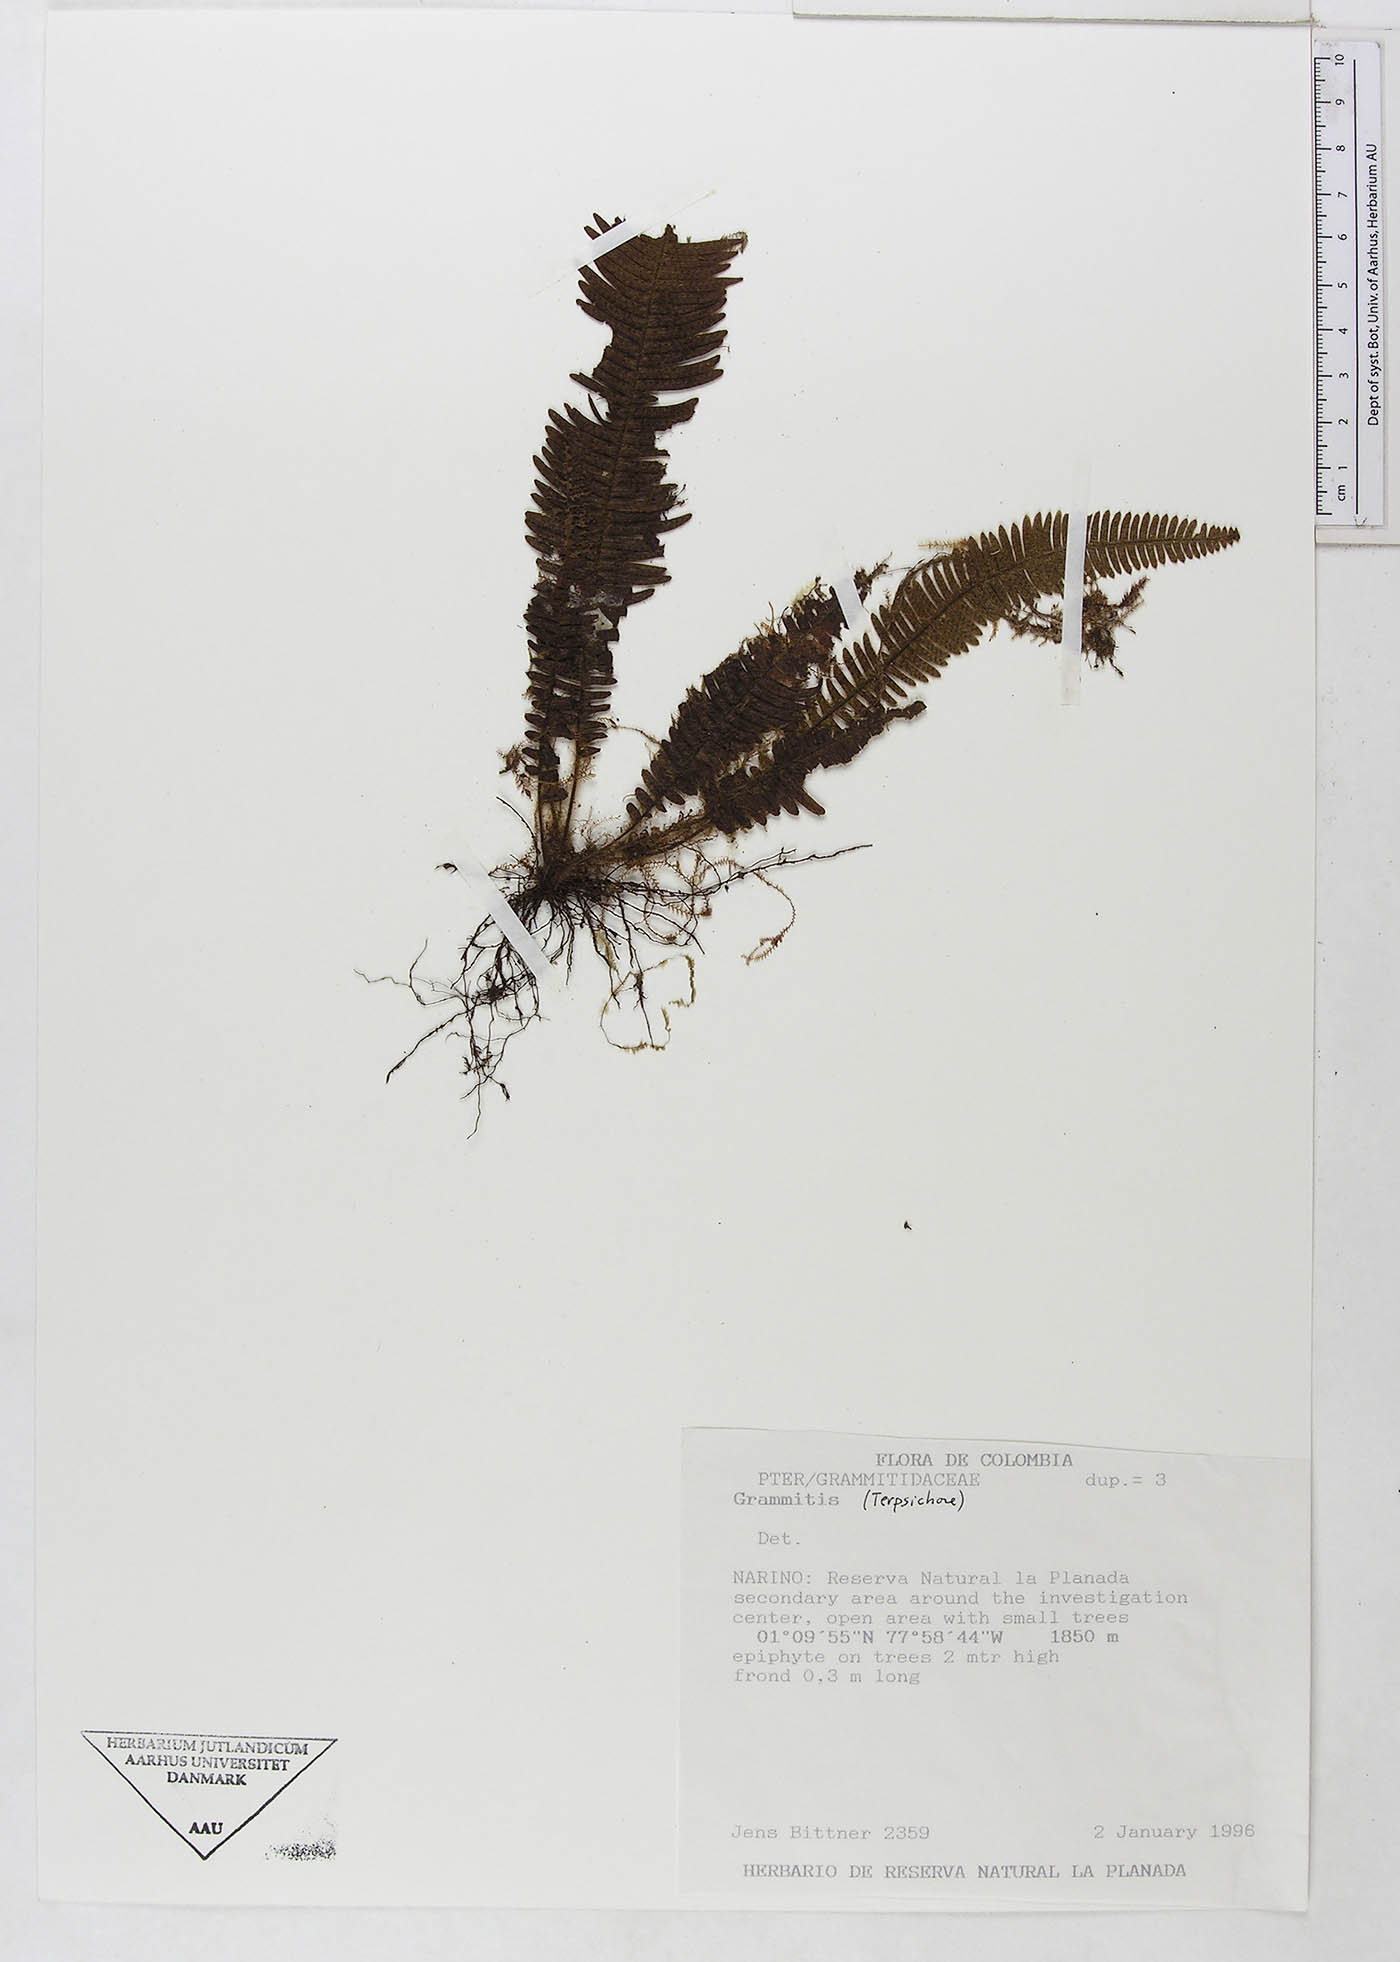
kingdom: Plantae
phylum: Tracheophyta
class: Polypodiopsida
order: Polypodiales
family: Polypodiaceae
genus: Grammitis
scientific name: Grammitis
